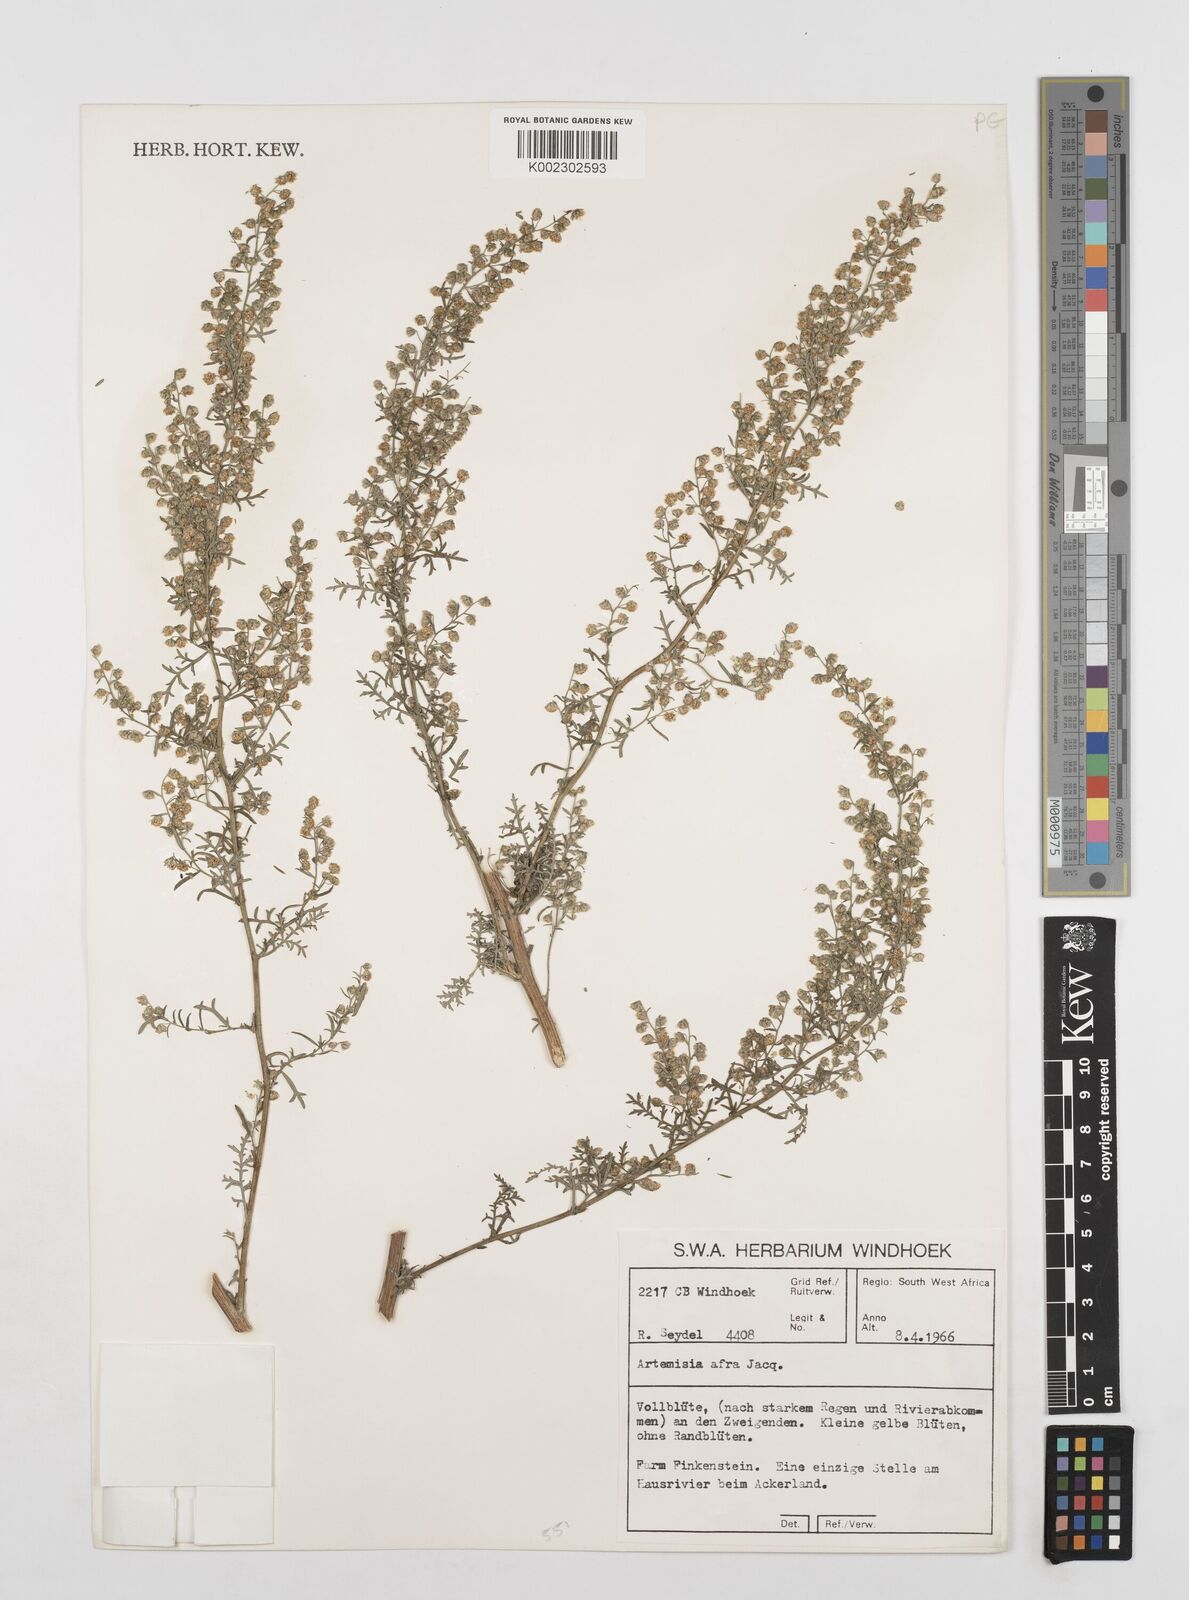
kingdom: Plantae
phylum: Tracheophyta
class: Magnoliopsida
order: Asterales
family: Asteraceae
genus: Artemisia
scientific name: Artemisia afra
